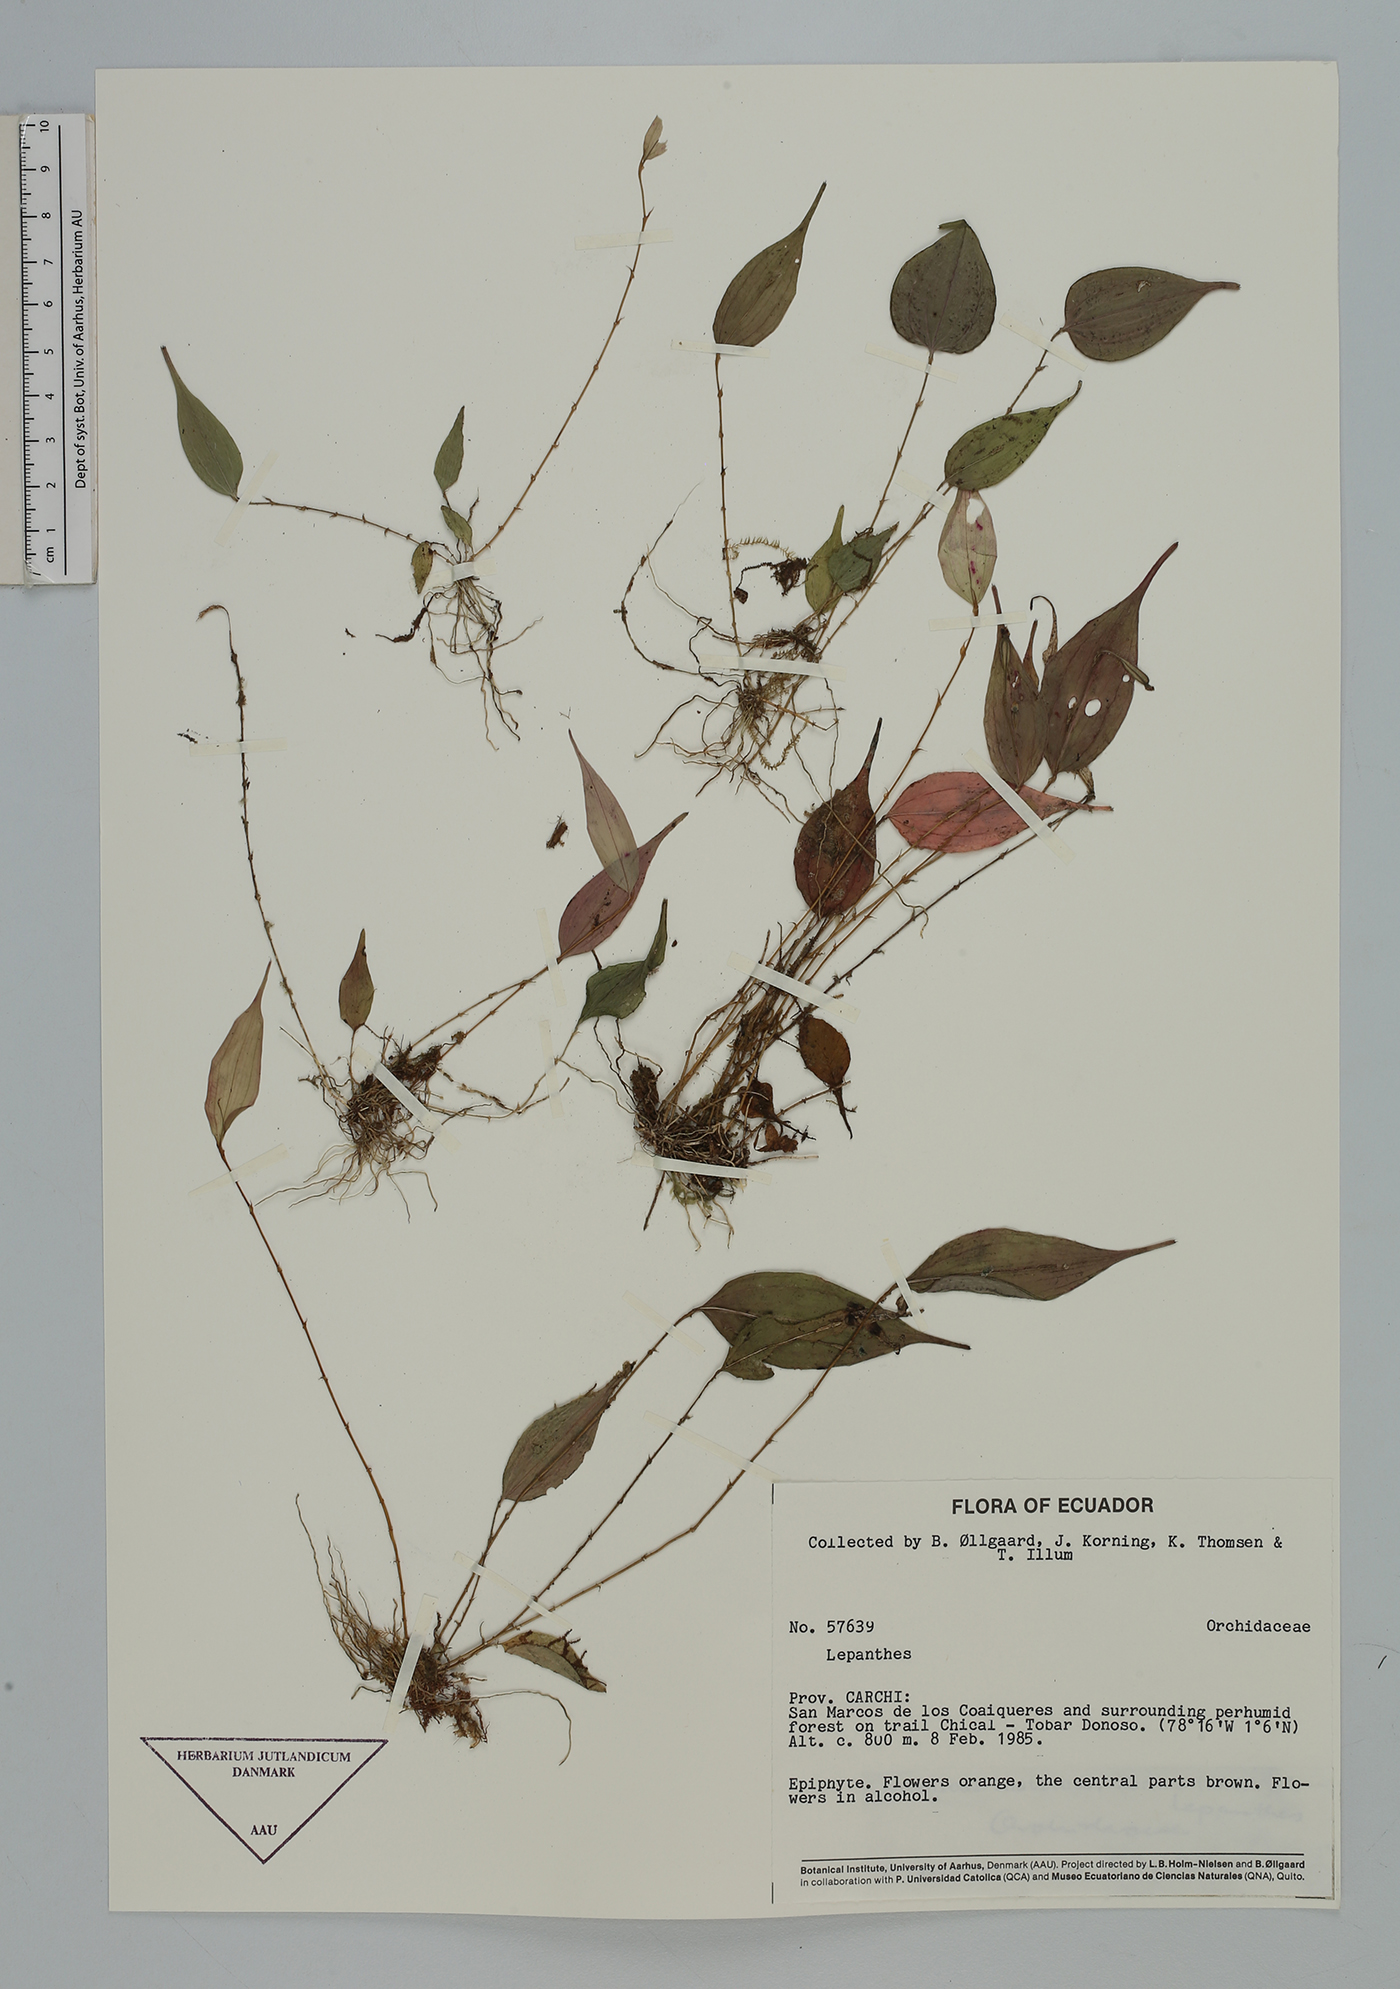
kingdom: Plantae
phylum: Tracheophyta
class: Liliopsida
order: Asparagales
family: Orchidaceae
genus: Lepanthes
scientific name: Lepanthes
